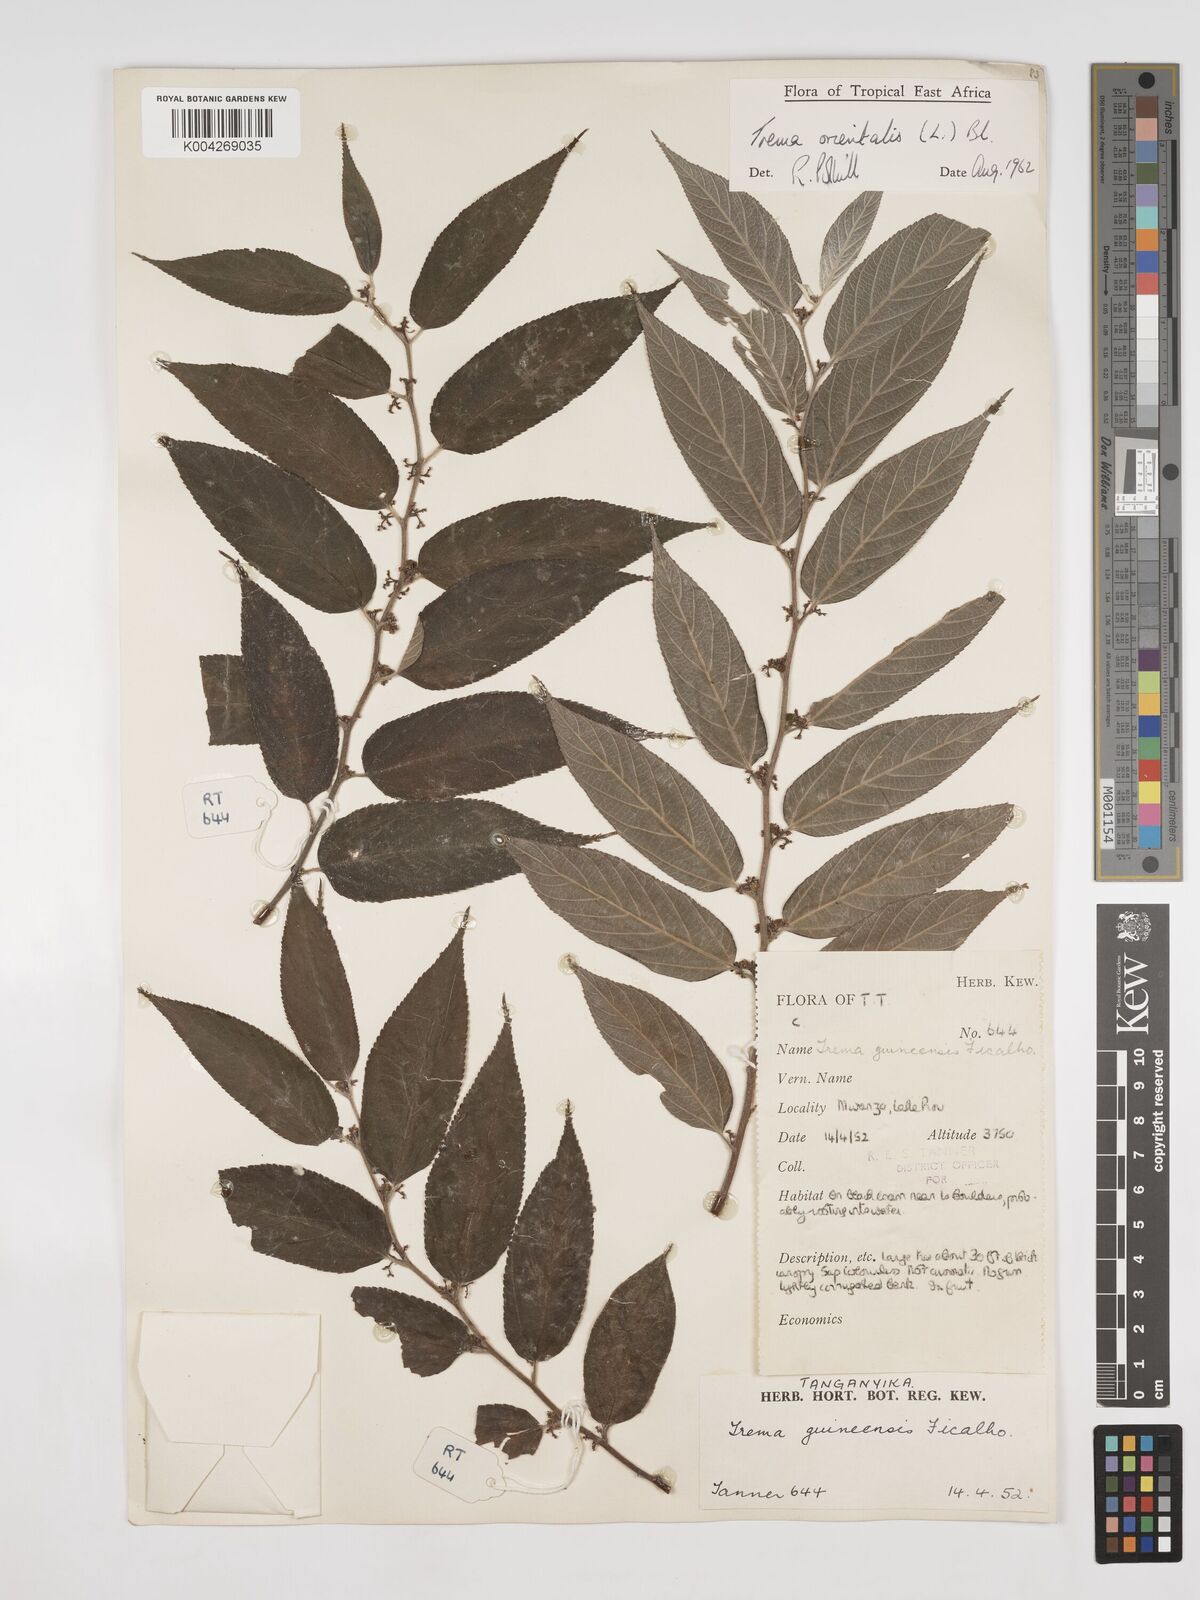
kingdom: Plantae
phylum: Tracheophyta
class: Magnoliopsida
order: Rosales
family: Cannabaceae
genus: Trema
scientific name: Trema orientale
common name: Indian charcoal tree
